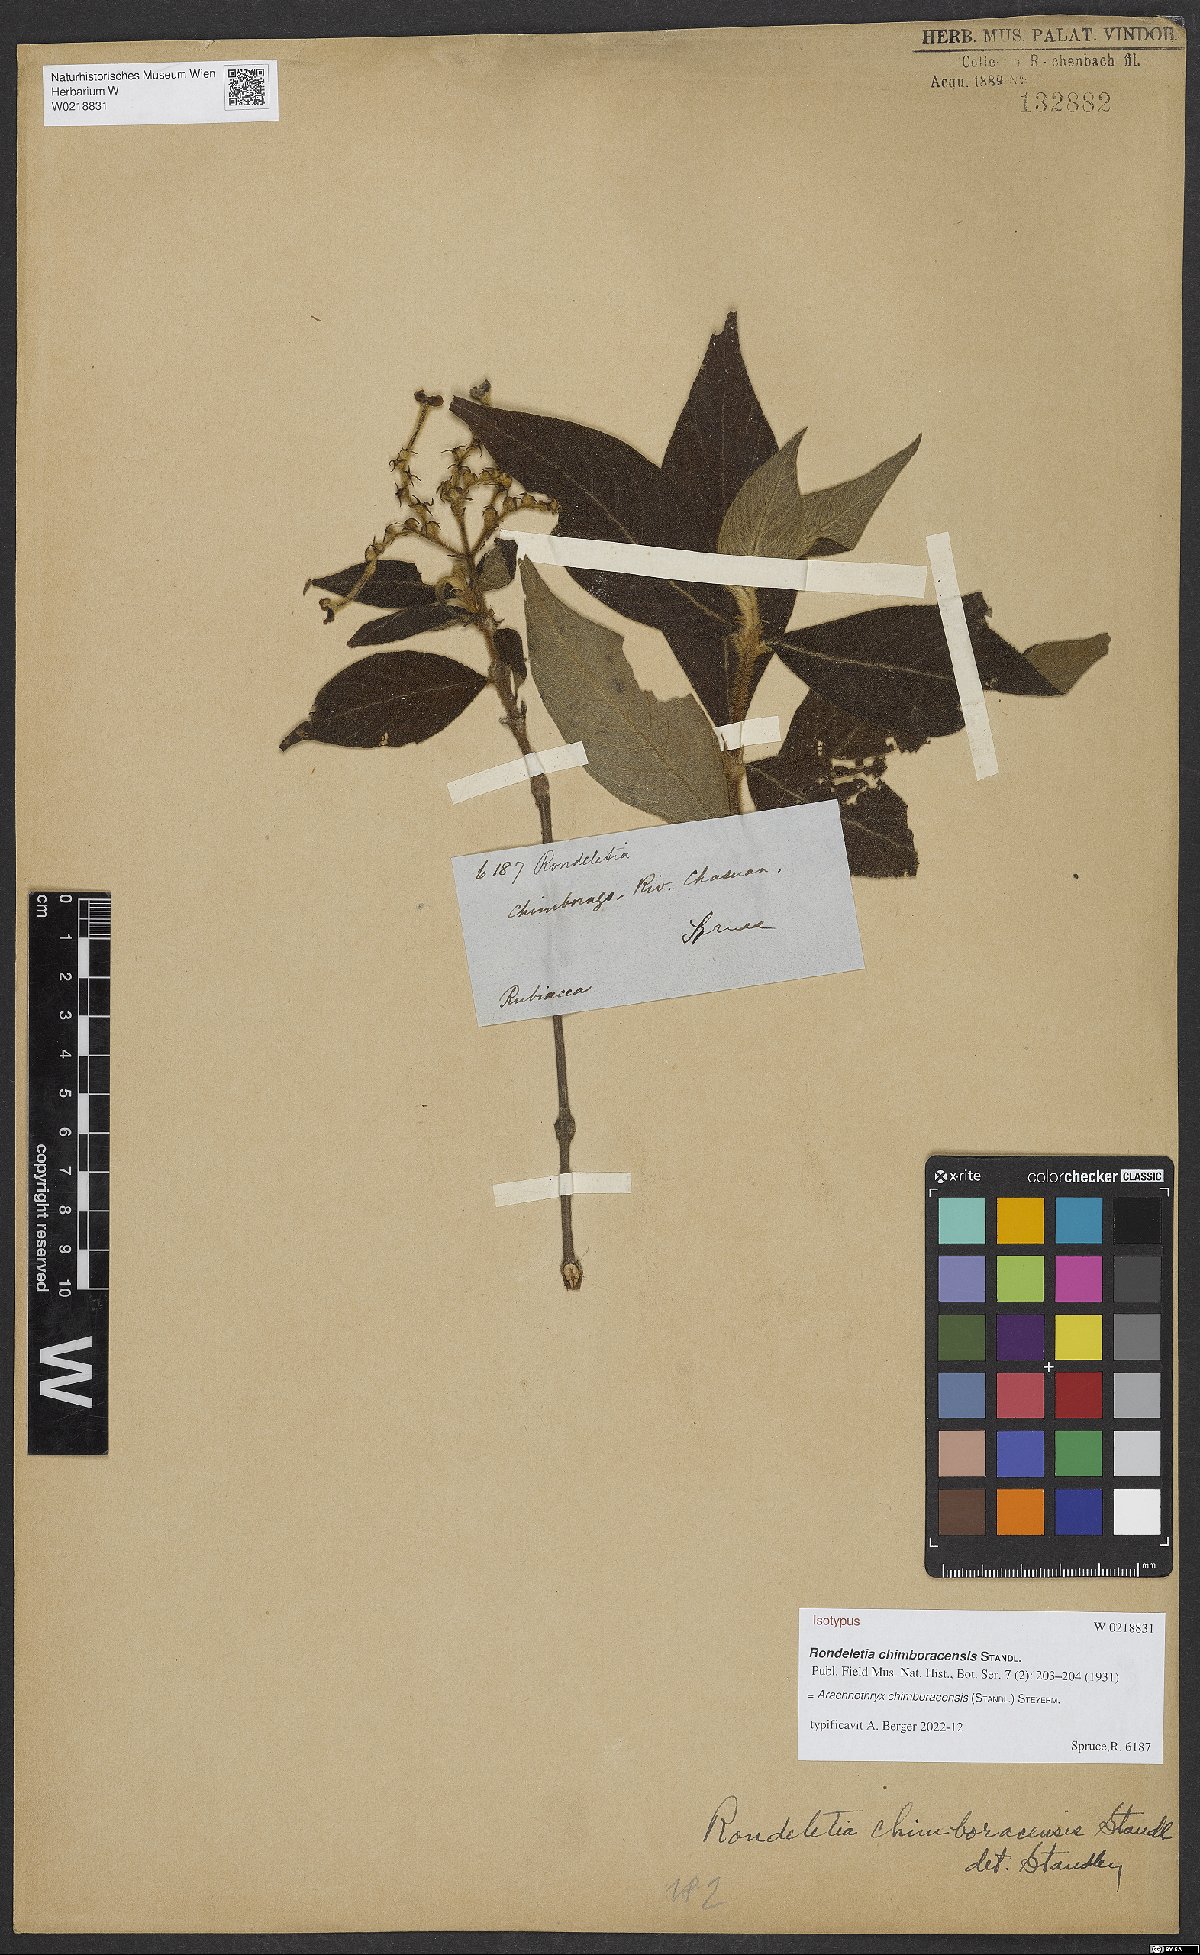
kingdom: Plantae
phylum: Tracheophyta
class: Magnoliopsida
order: Gentianales
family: Rubiaceae
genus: Arachnothryx
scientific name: Arachnothryx chimboracensis
